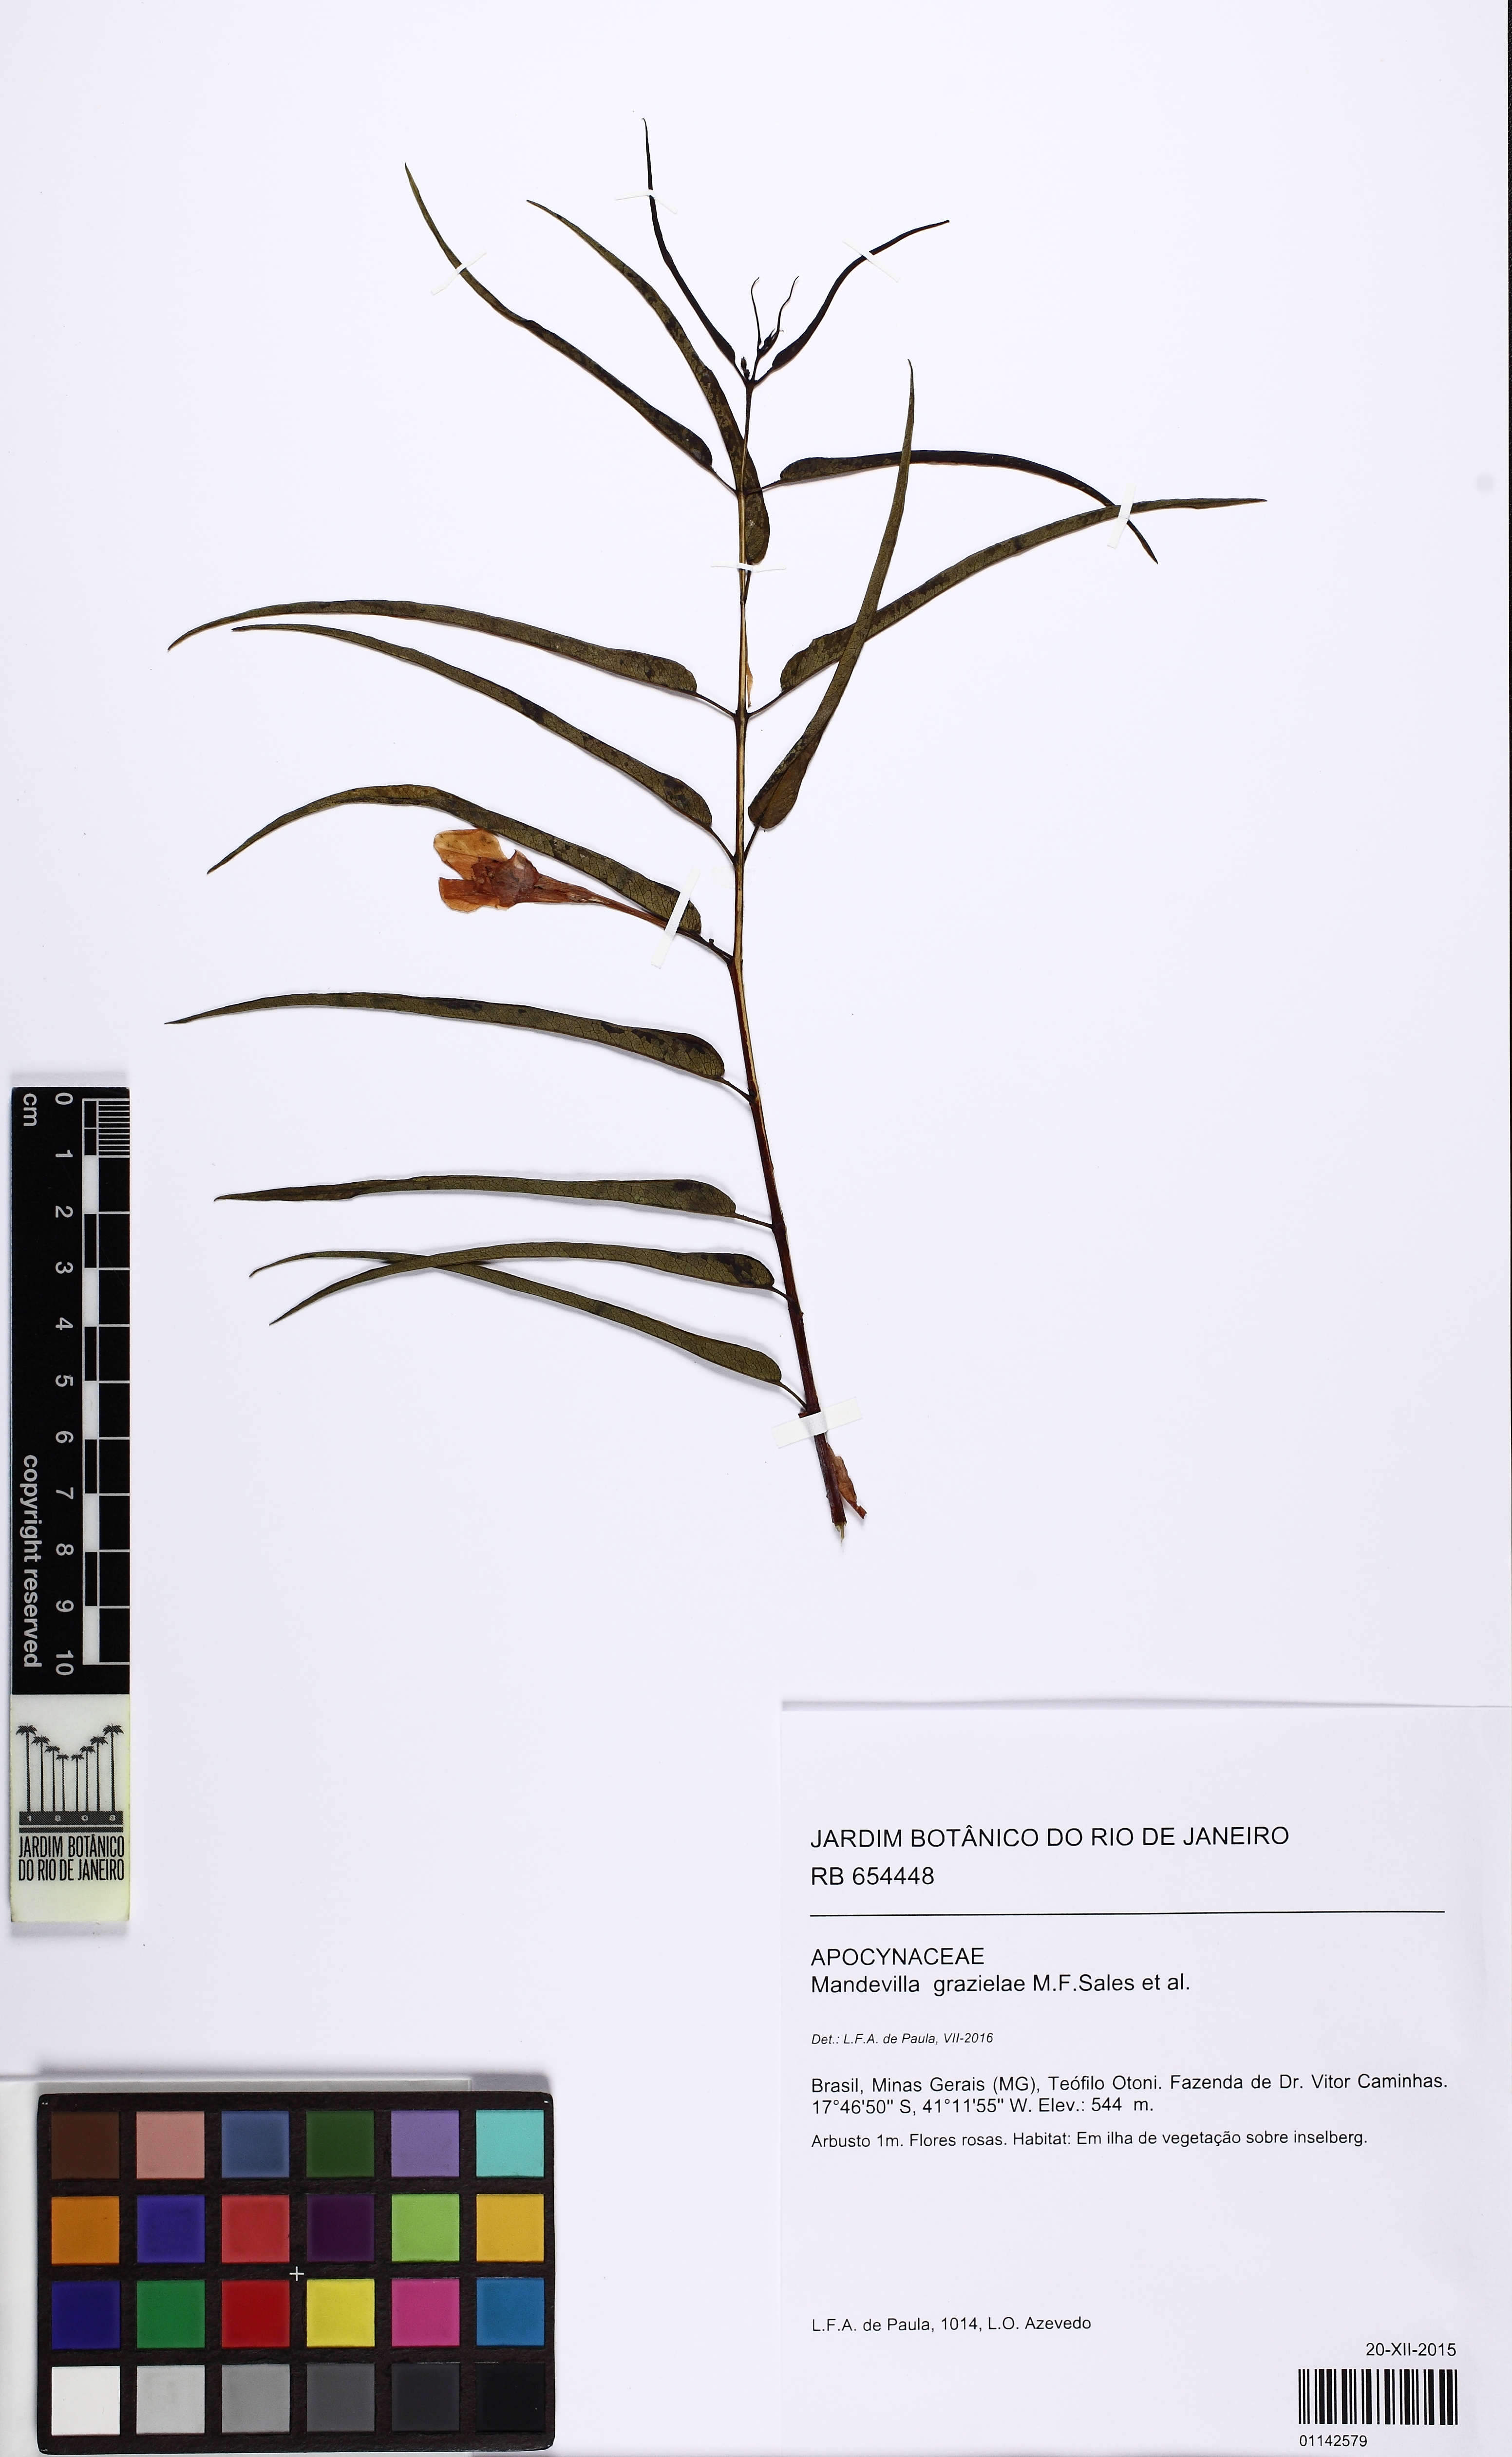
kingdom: Plantae
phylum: Tracheophyta
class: Magnoliopsida
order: Gentianales
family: Apocynaceae
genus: Mandevilla
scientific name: Mandevilla grazielae
